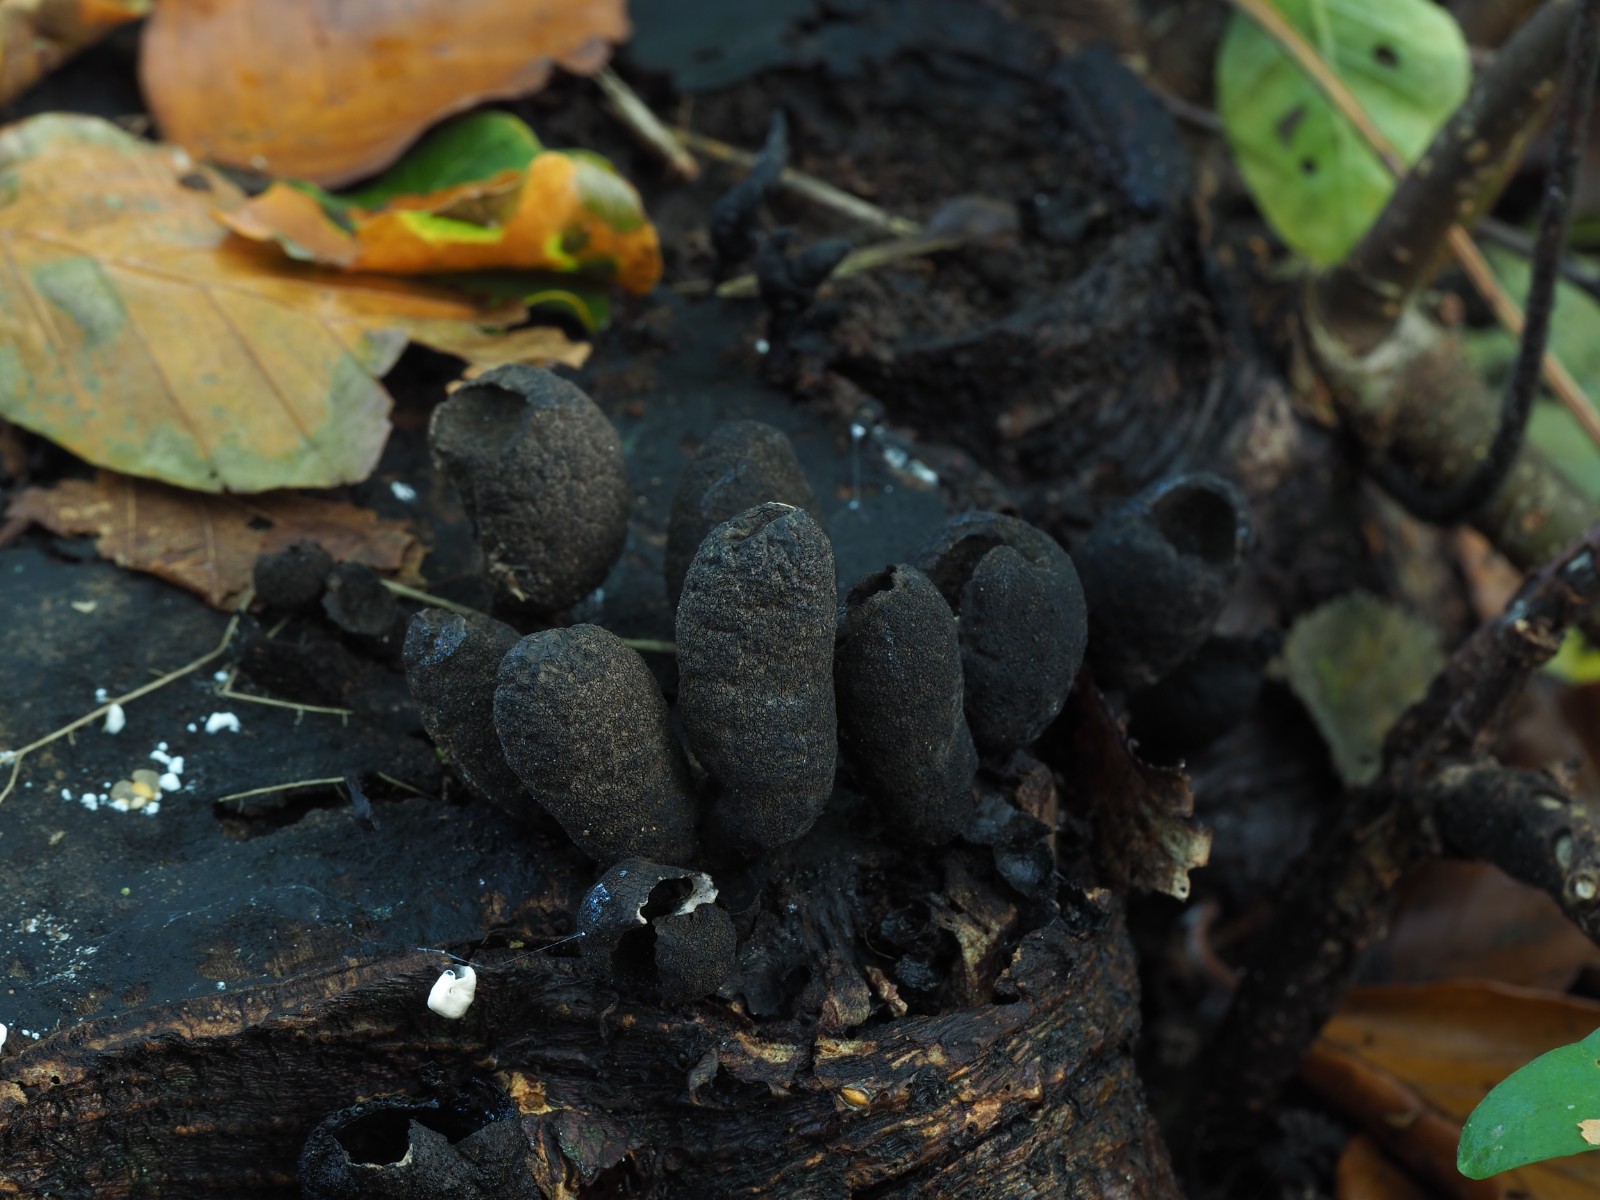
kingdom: Fungi
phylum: Ascomycota
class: Sordariomycetes
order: Xylariales
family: Xylariaceae
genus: Xylaria
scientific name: Xylaria polymorpha
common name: kølle-stødsvamp
